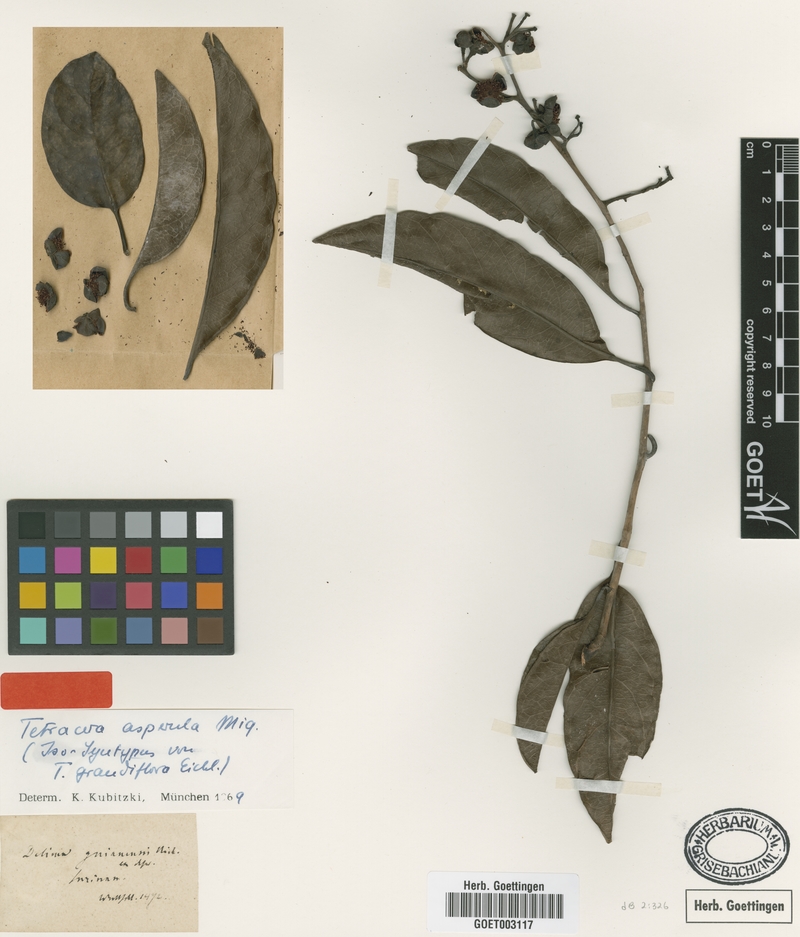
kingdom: Plantae
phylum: Tracheophyta
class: Magnoliopsida
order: Dilleniales
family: Dilleniaceae
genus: Tetracera
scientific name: Tetracera asperula
